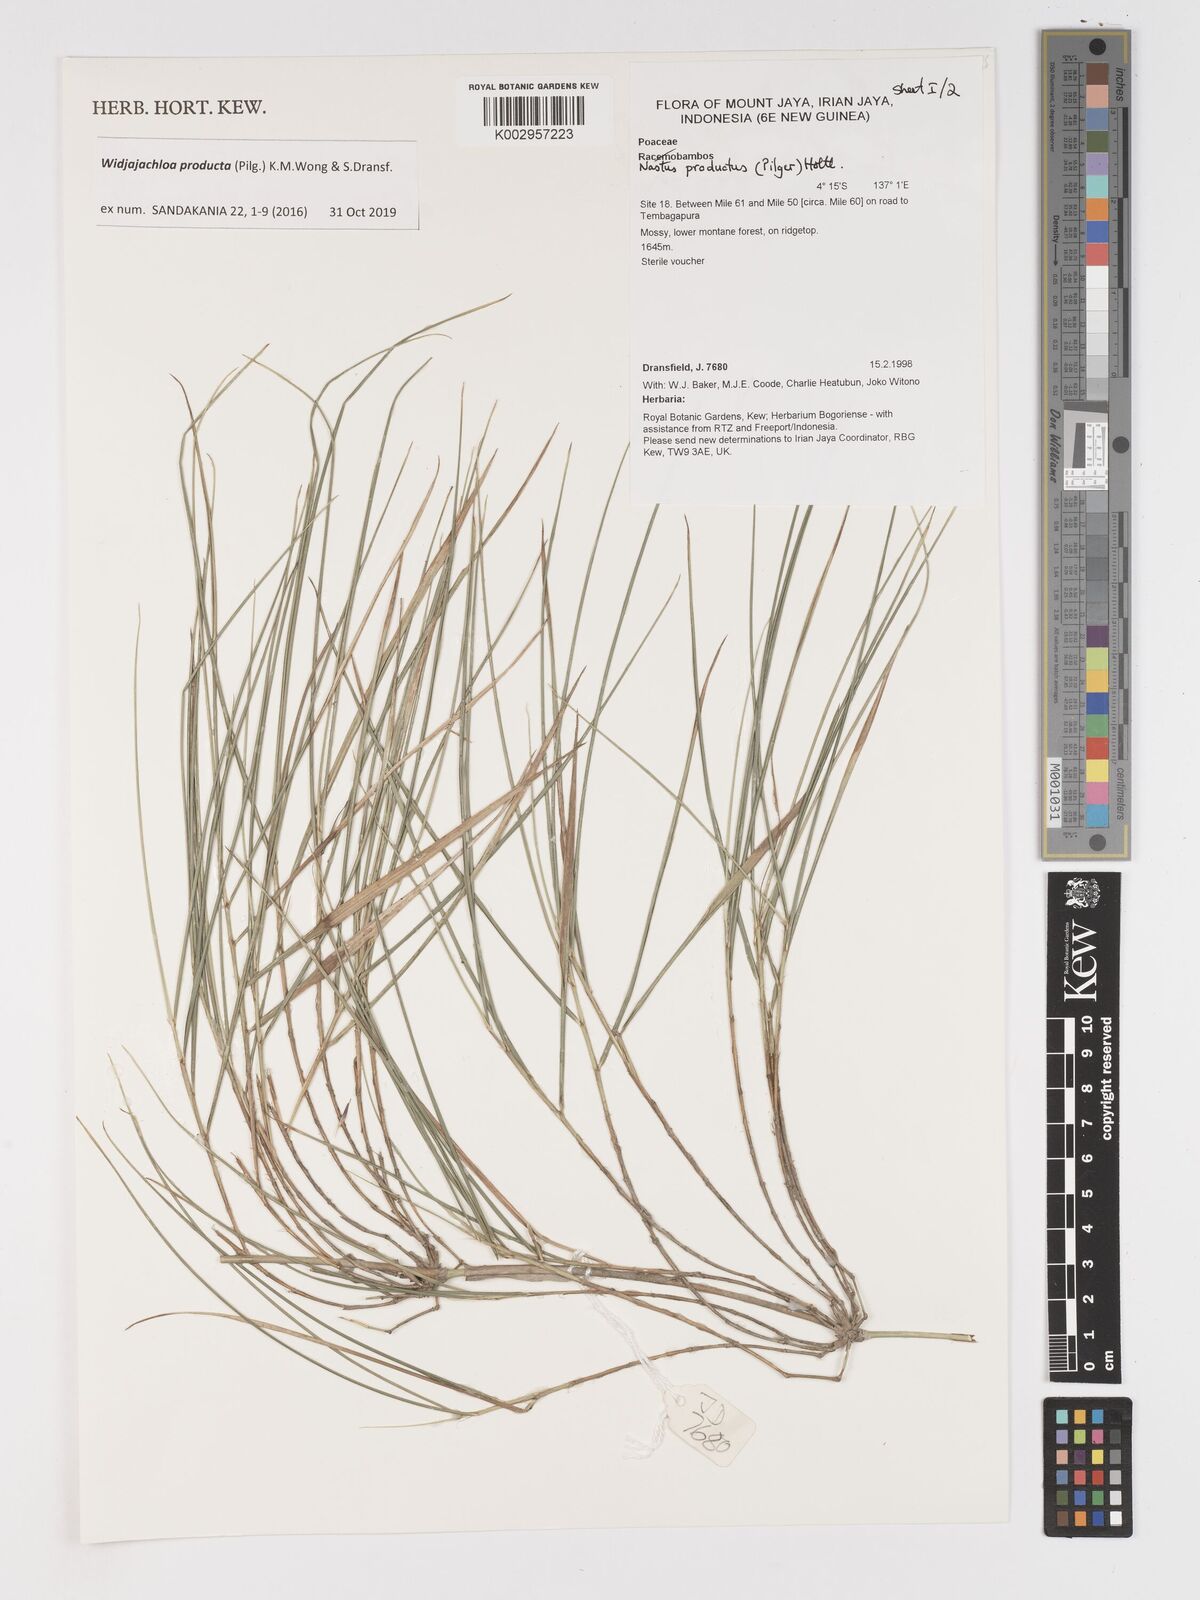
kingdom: Plantae
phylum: Tracheophyta
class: Liliopsida
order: Poales
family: Poaceae
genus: Widjajachloa
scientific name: Widjajachloa producta
